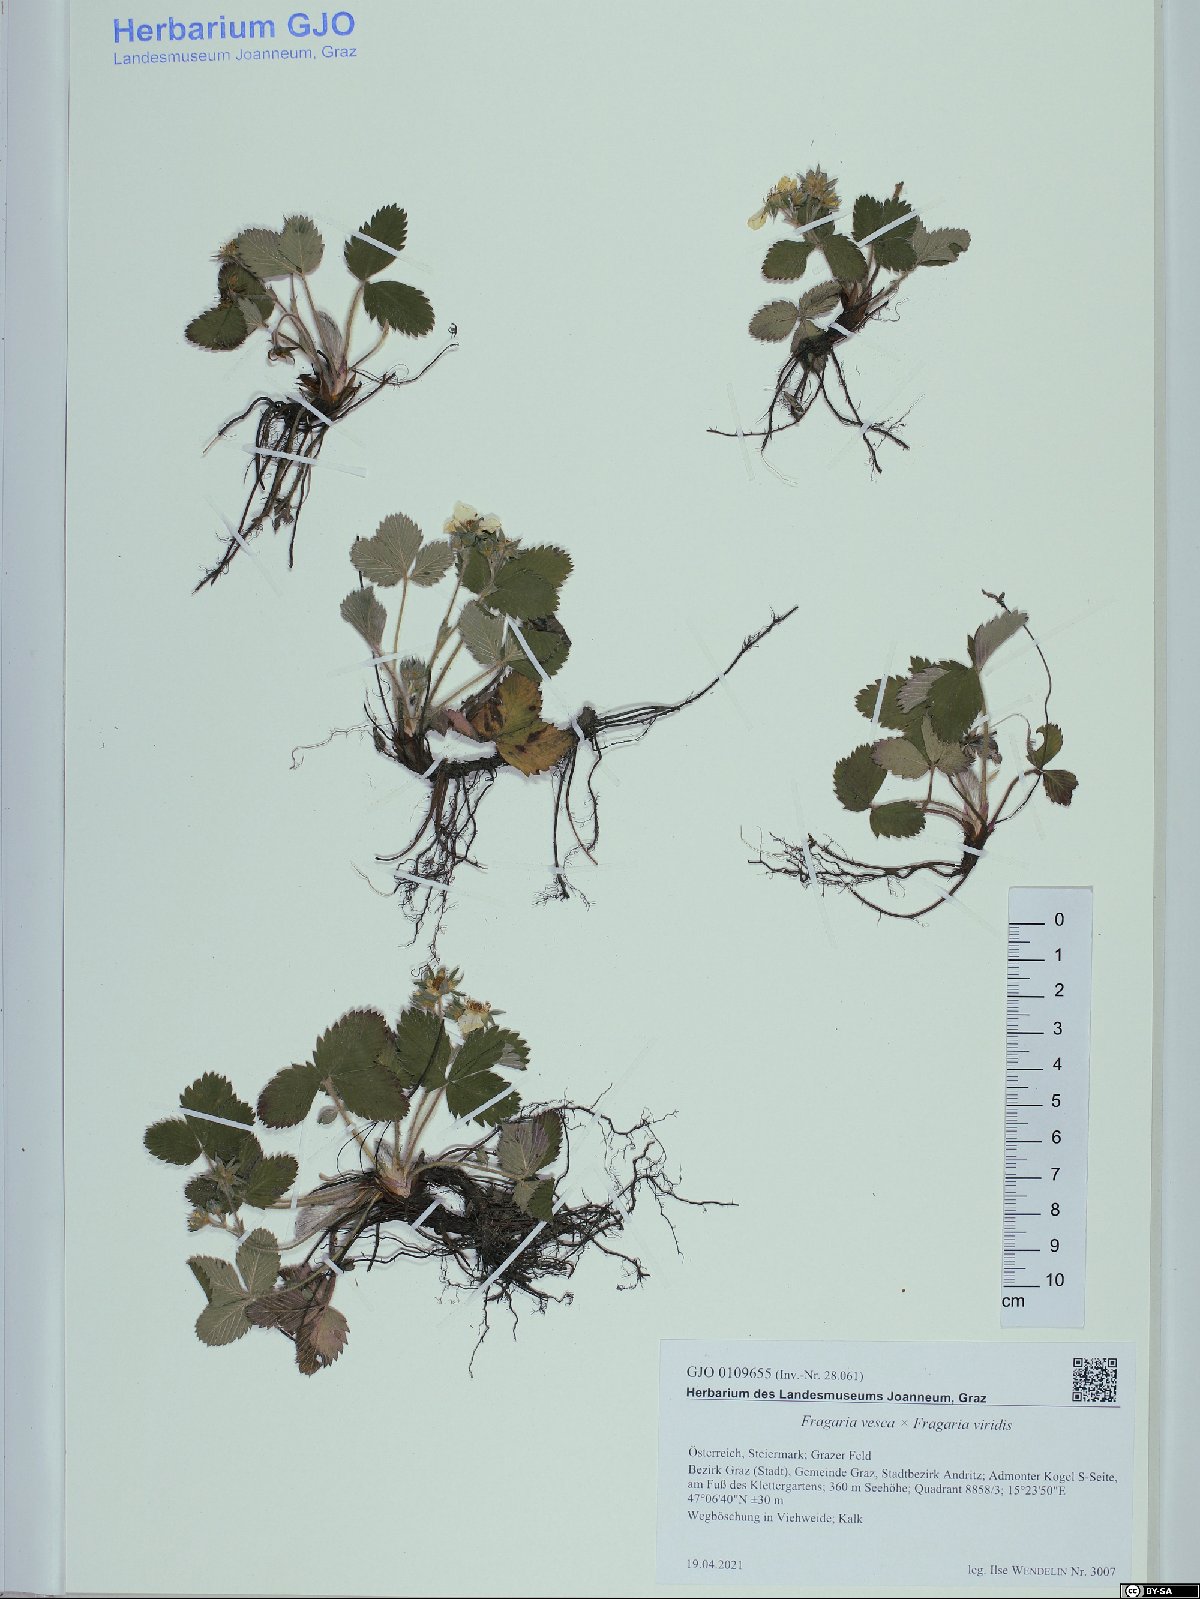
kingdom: Plantae
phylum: Tracheophyta
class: Magnoliopsida
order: Rosales
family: Rosaceae
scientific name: Rosaceae
